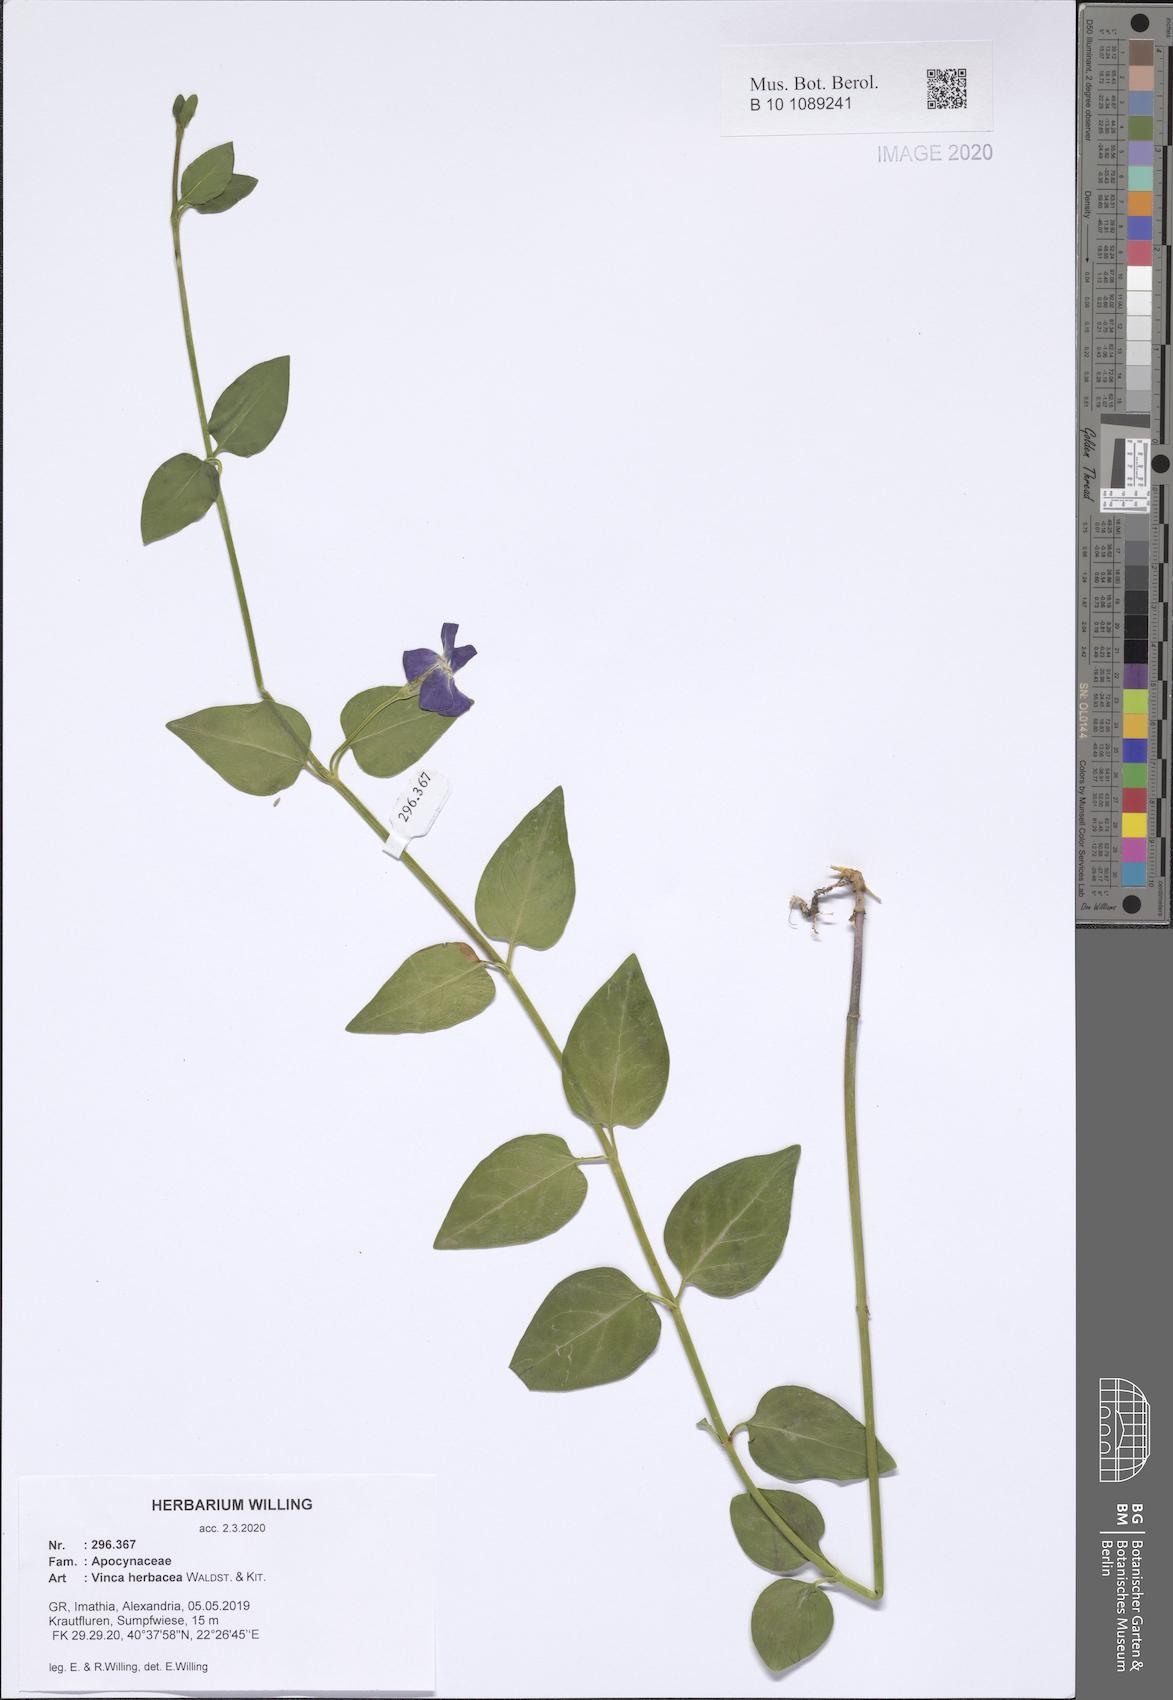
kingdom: Plantae
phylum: Tracheophyta
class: Magnoliopsida
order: Gentianales
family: Apocynaceae
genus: Vinca
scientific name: Vinca herbacea
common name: Herbaceous periwinkle
